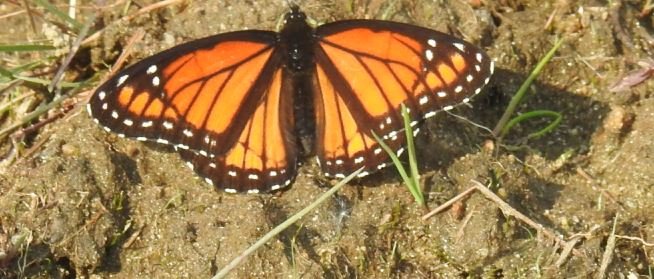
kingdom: Animalia
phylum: Arthropoda
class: Insecta
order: Lepidoptera
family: Nymphalidae
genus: Limenitis
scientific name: Limenitis archippus
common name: Viceroy
